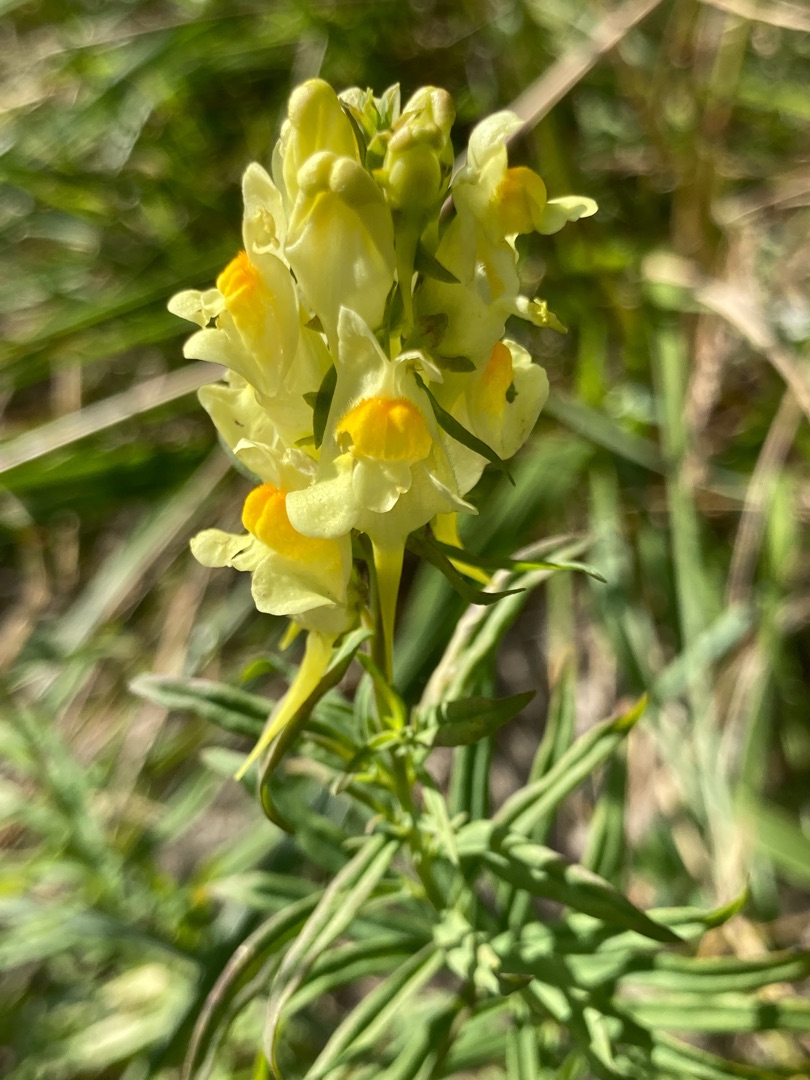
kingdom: Plantae
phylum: Tracheophyta
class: Magnoliopsida
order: Lamiales
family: Plantaginaceae
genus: Linaria
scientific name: Linaria vulgaris
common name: Almindelig torskemund
